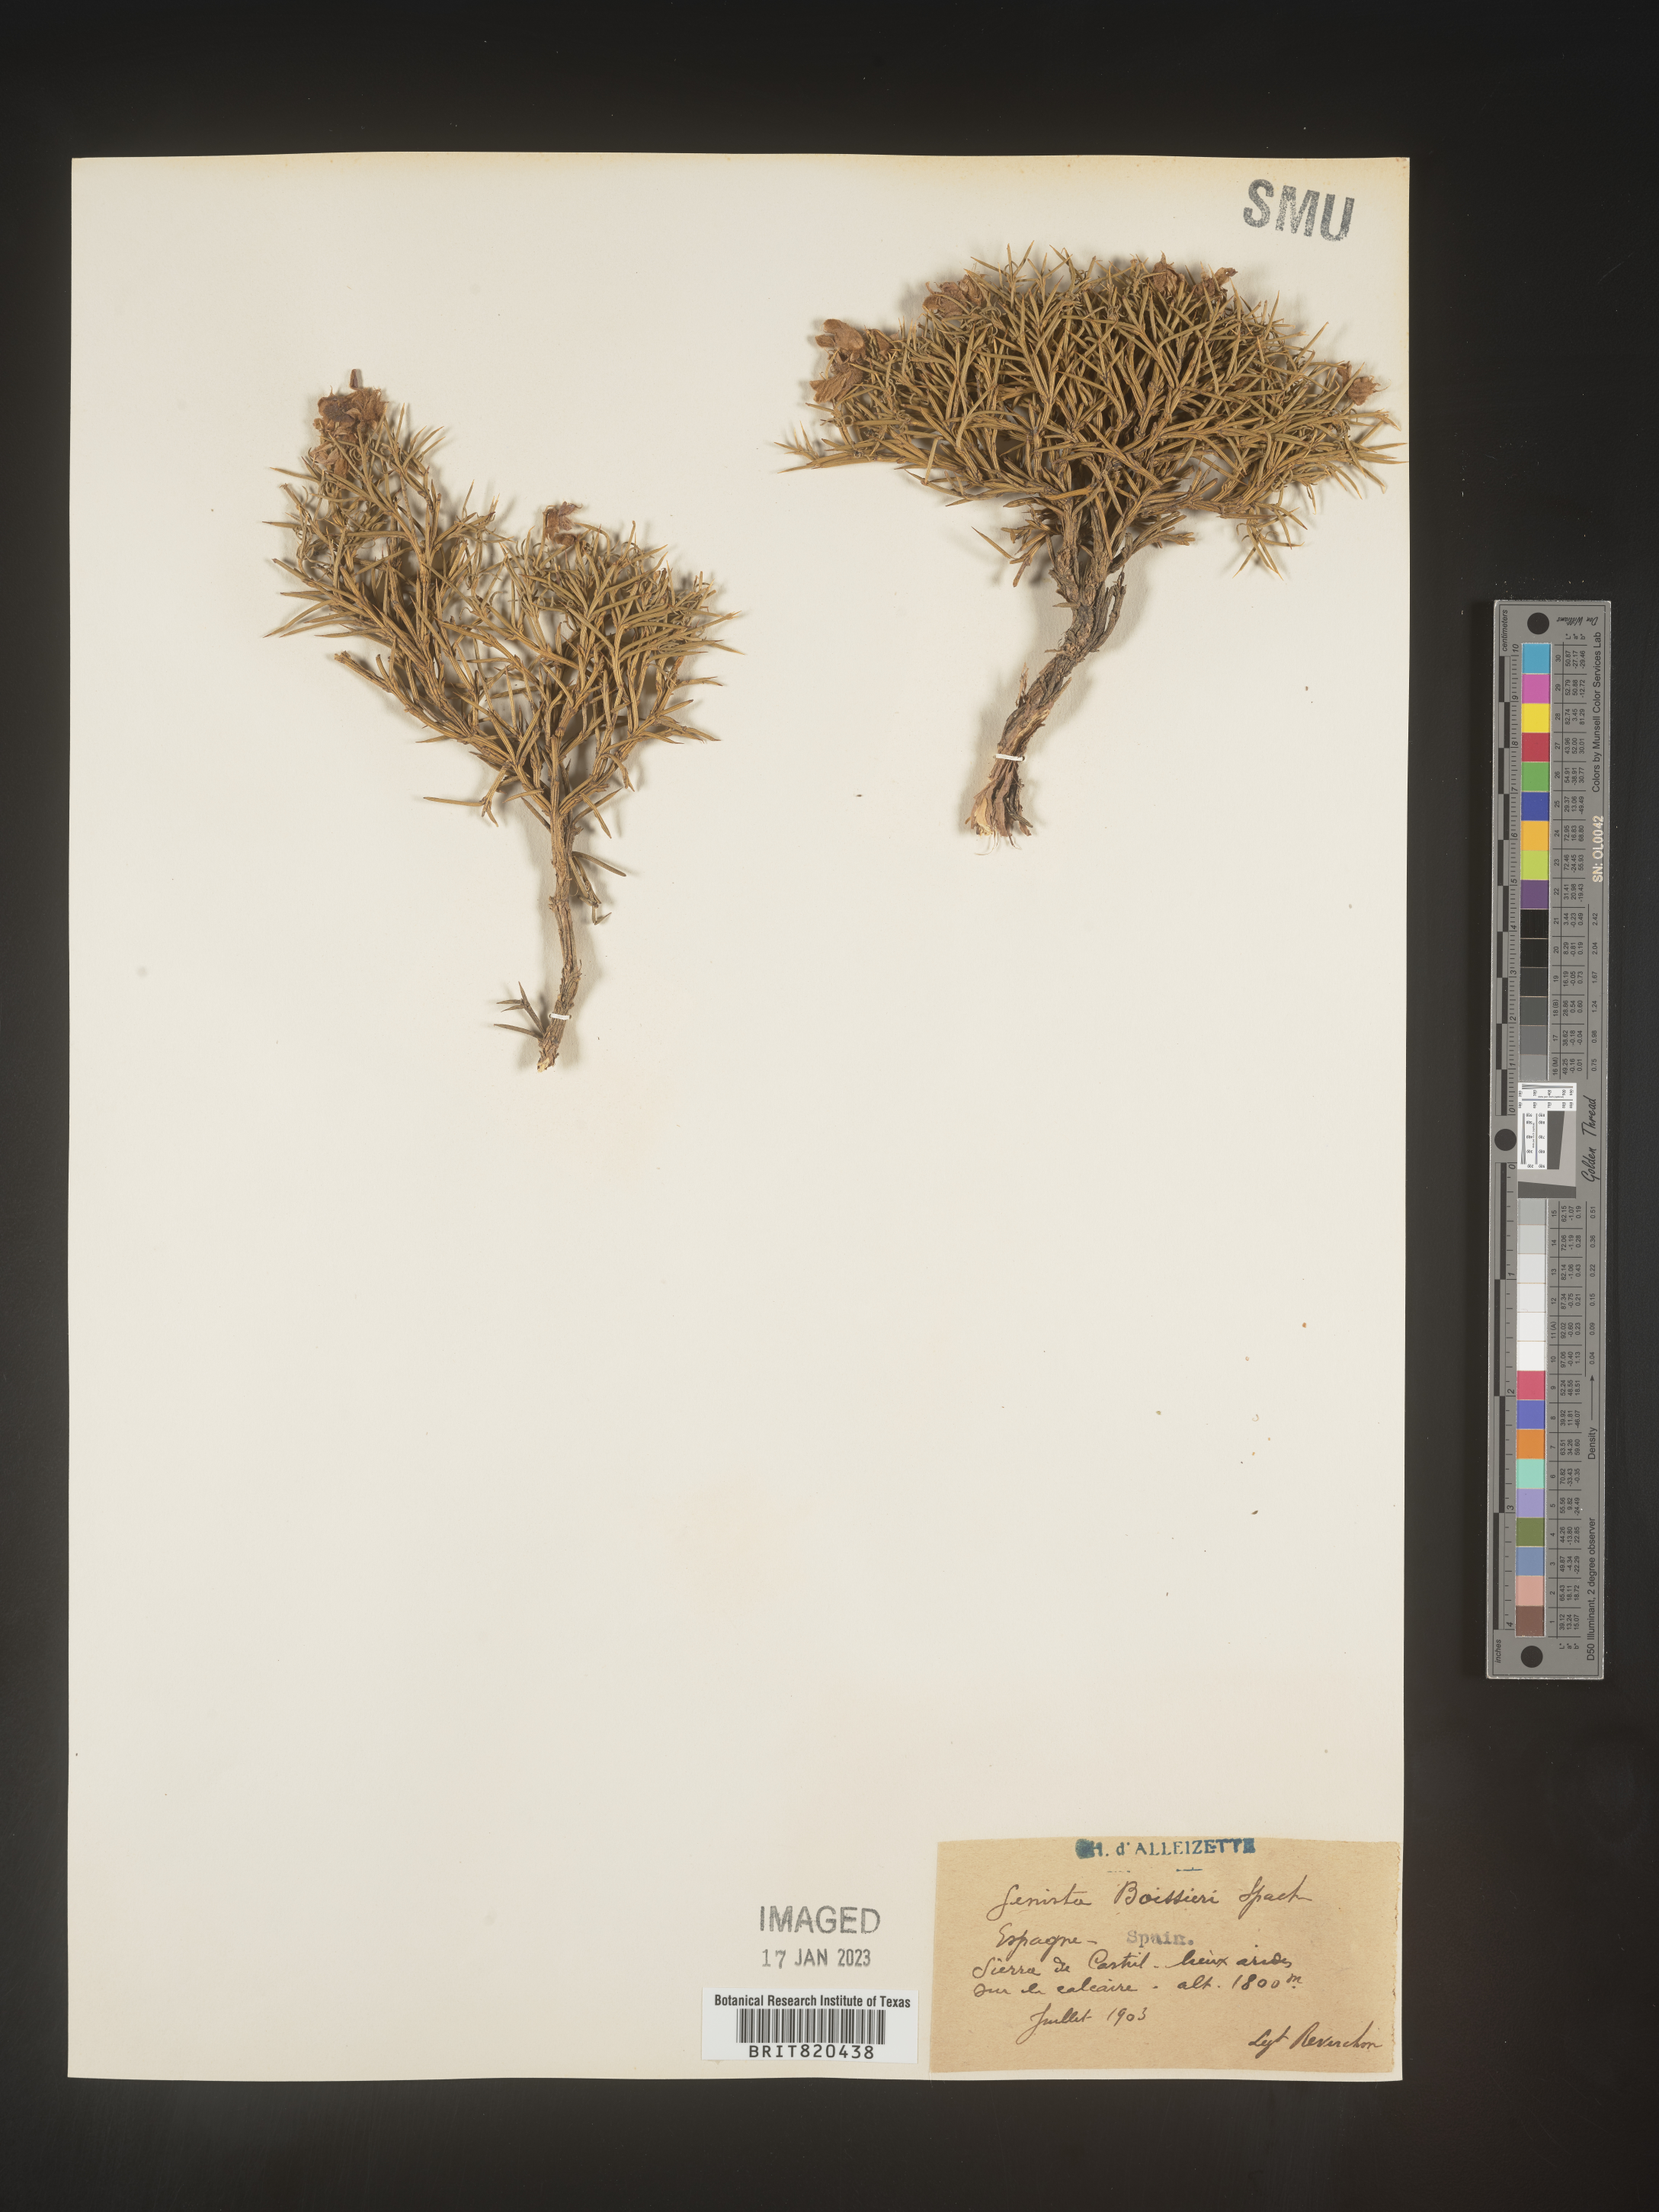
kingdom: Plantae
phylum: Tracheophyta
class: Magnoliopsida
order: Fabales
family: Fabaceae
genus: Genista
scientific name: Genista
